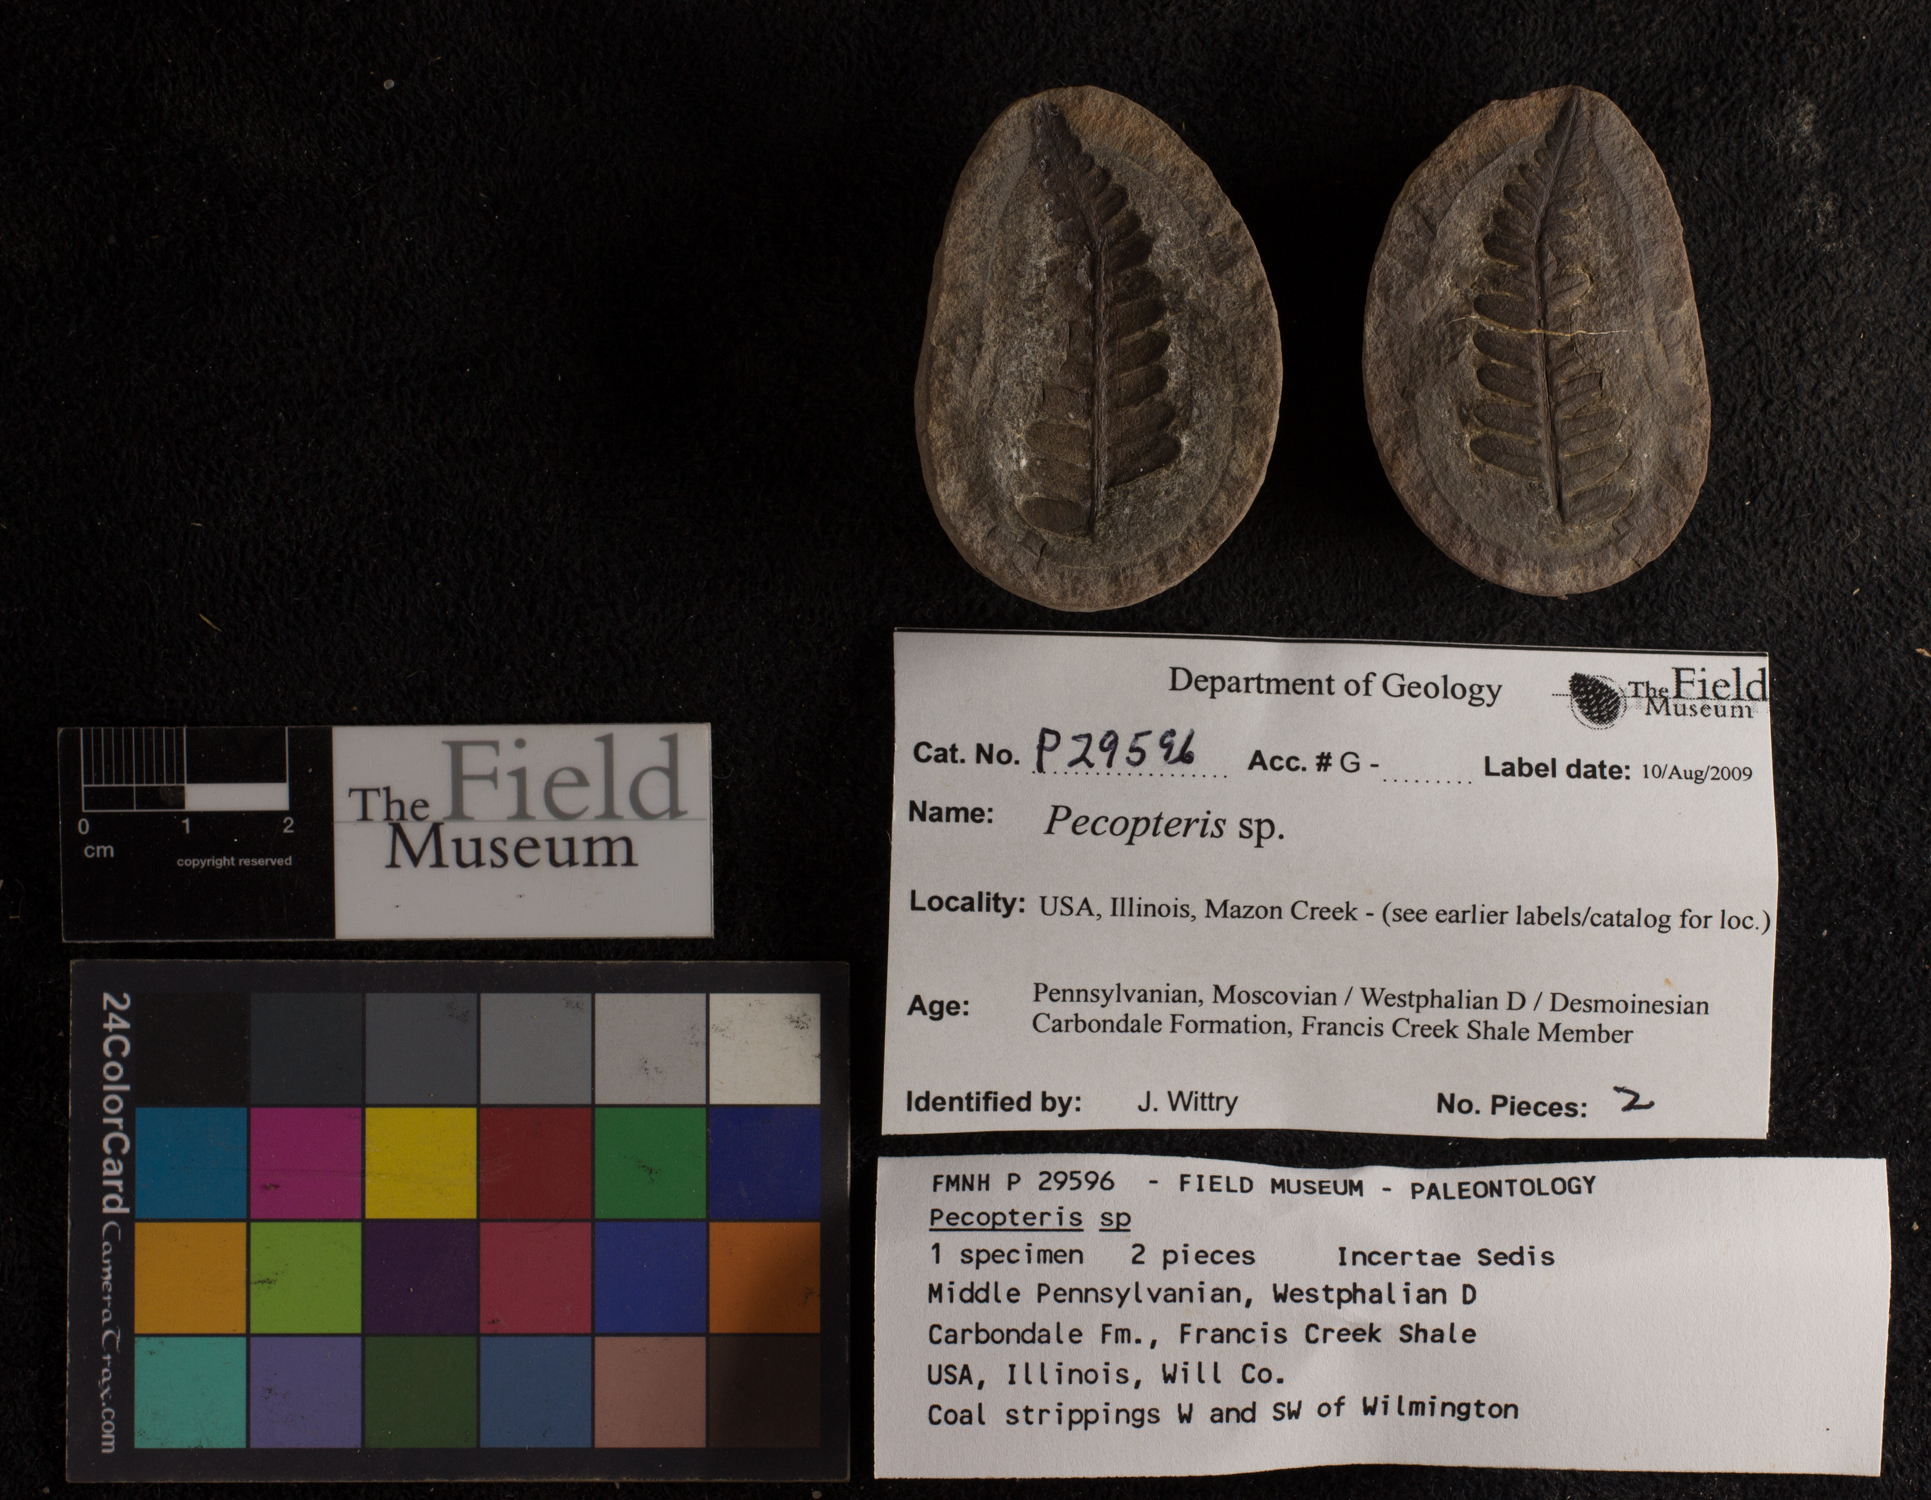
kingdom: Plantae
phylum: Tracheophyta
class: Polypodiopsida
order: Marattiales
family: Asterothecaceae
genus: Pecopteris
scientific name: Pecopteris
